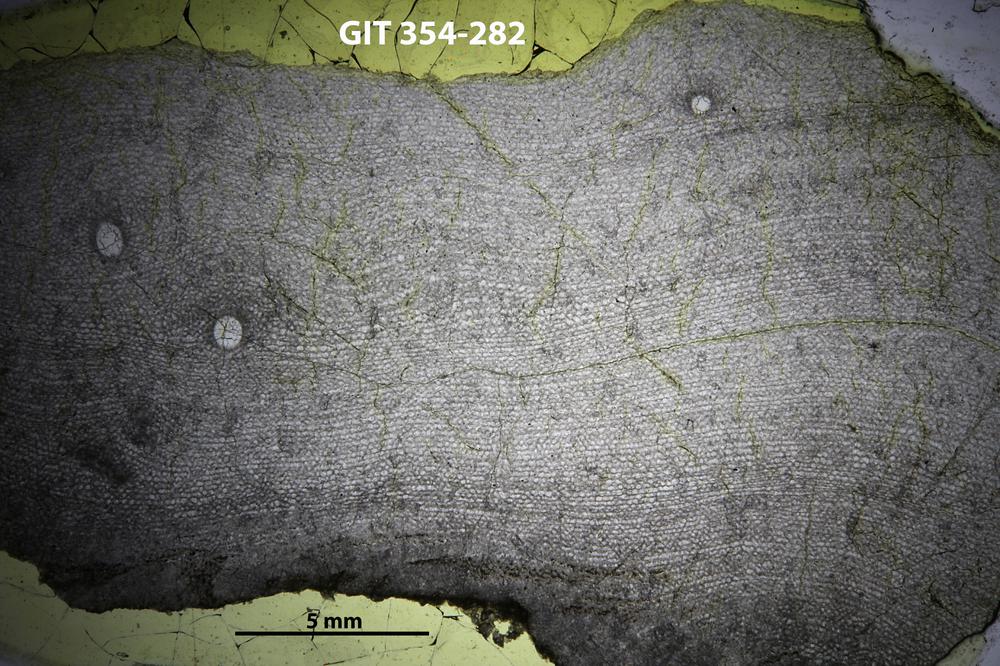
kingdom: Animalia
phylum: Porifera
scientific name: Porifera
